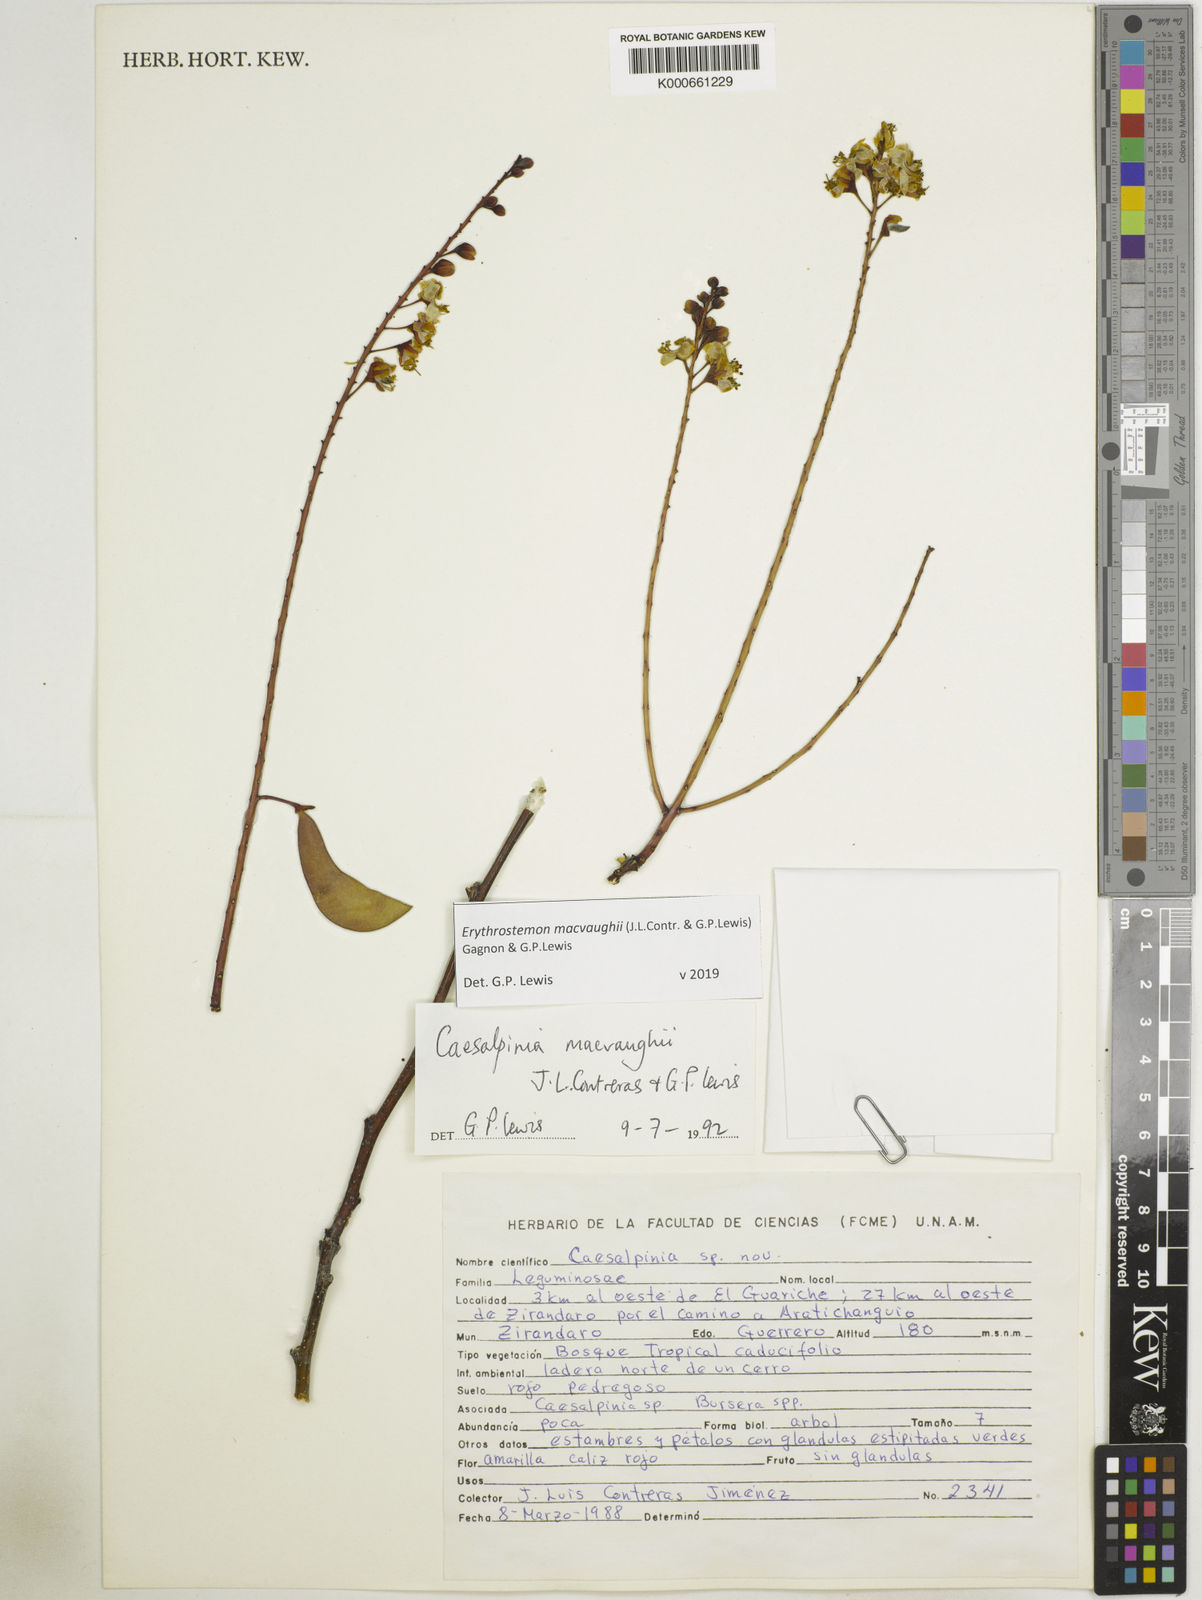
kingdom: Plantae
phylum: Tracheophyta
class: Magnoliopsida
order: Fabales
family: Fabaceae
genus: Erythrostemon
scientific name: Erythrostemon macvaughii
